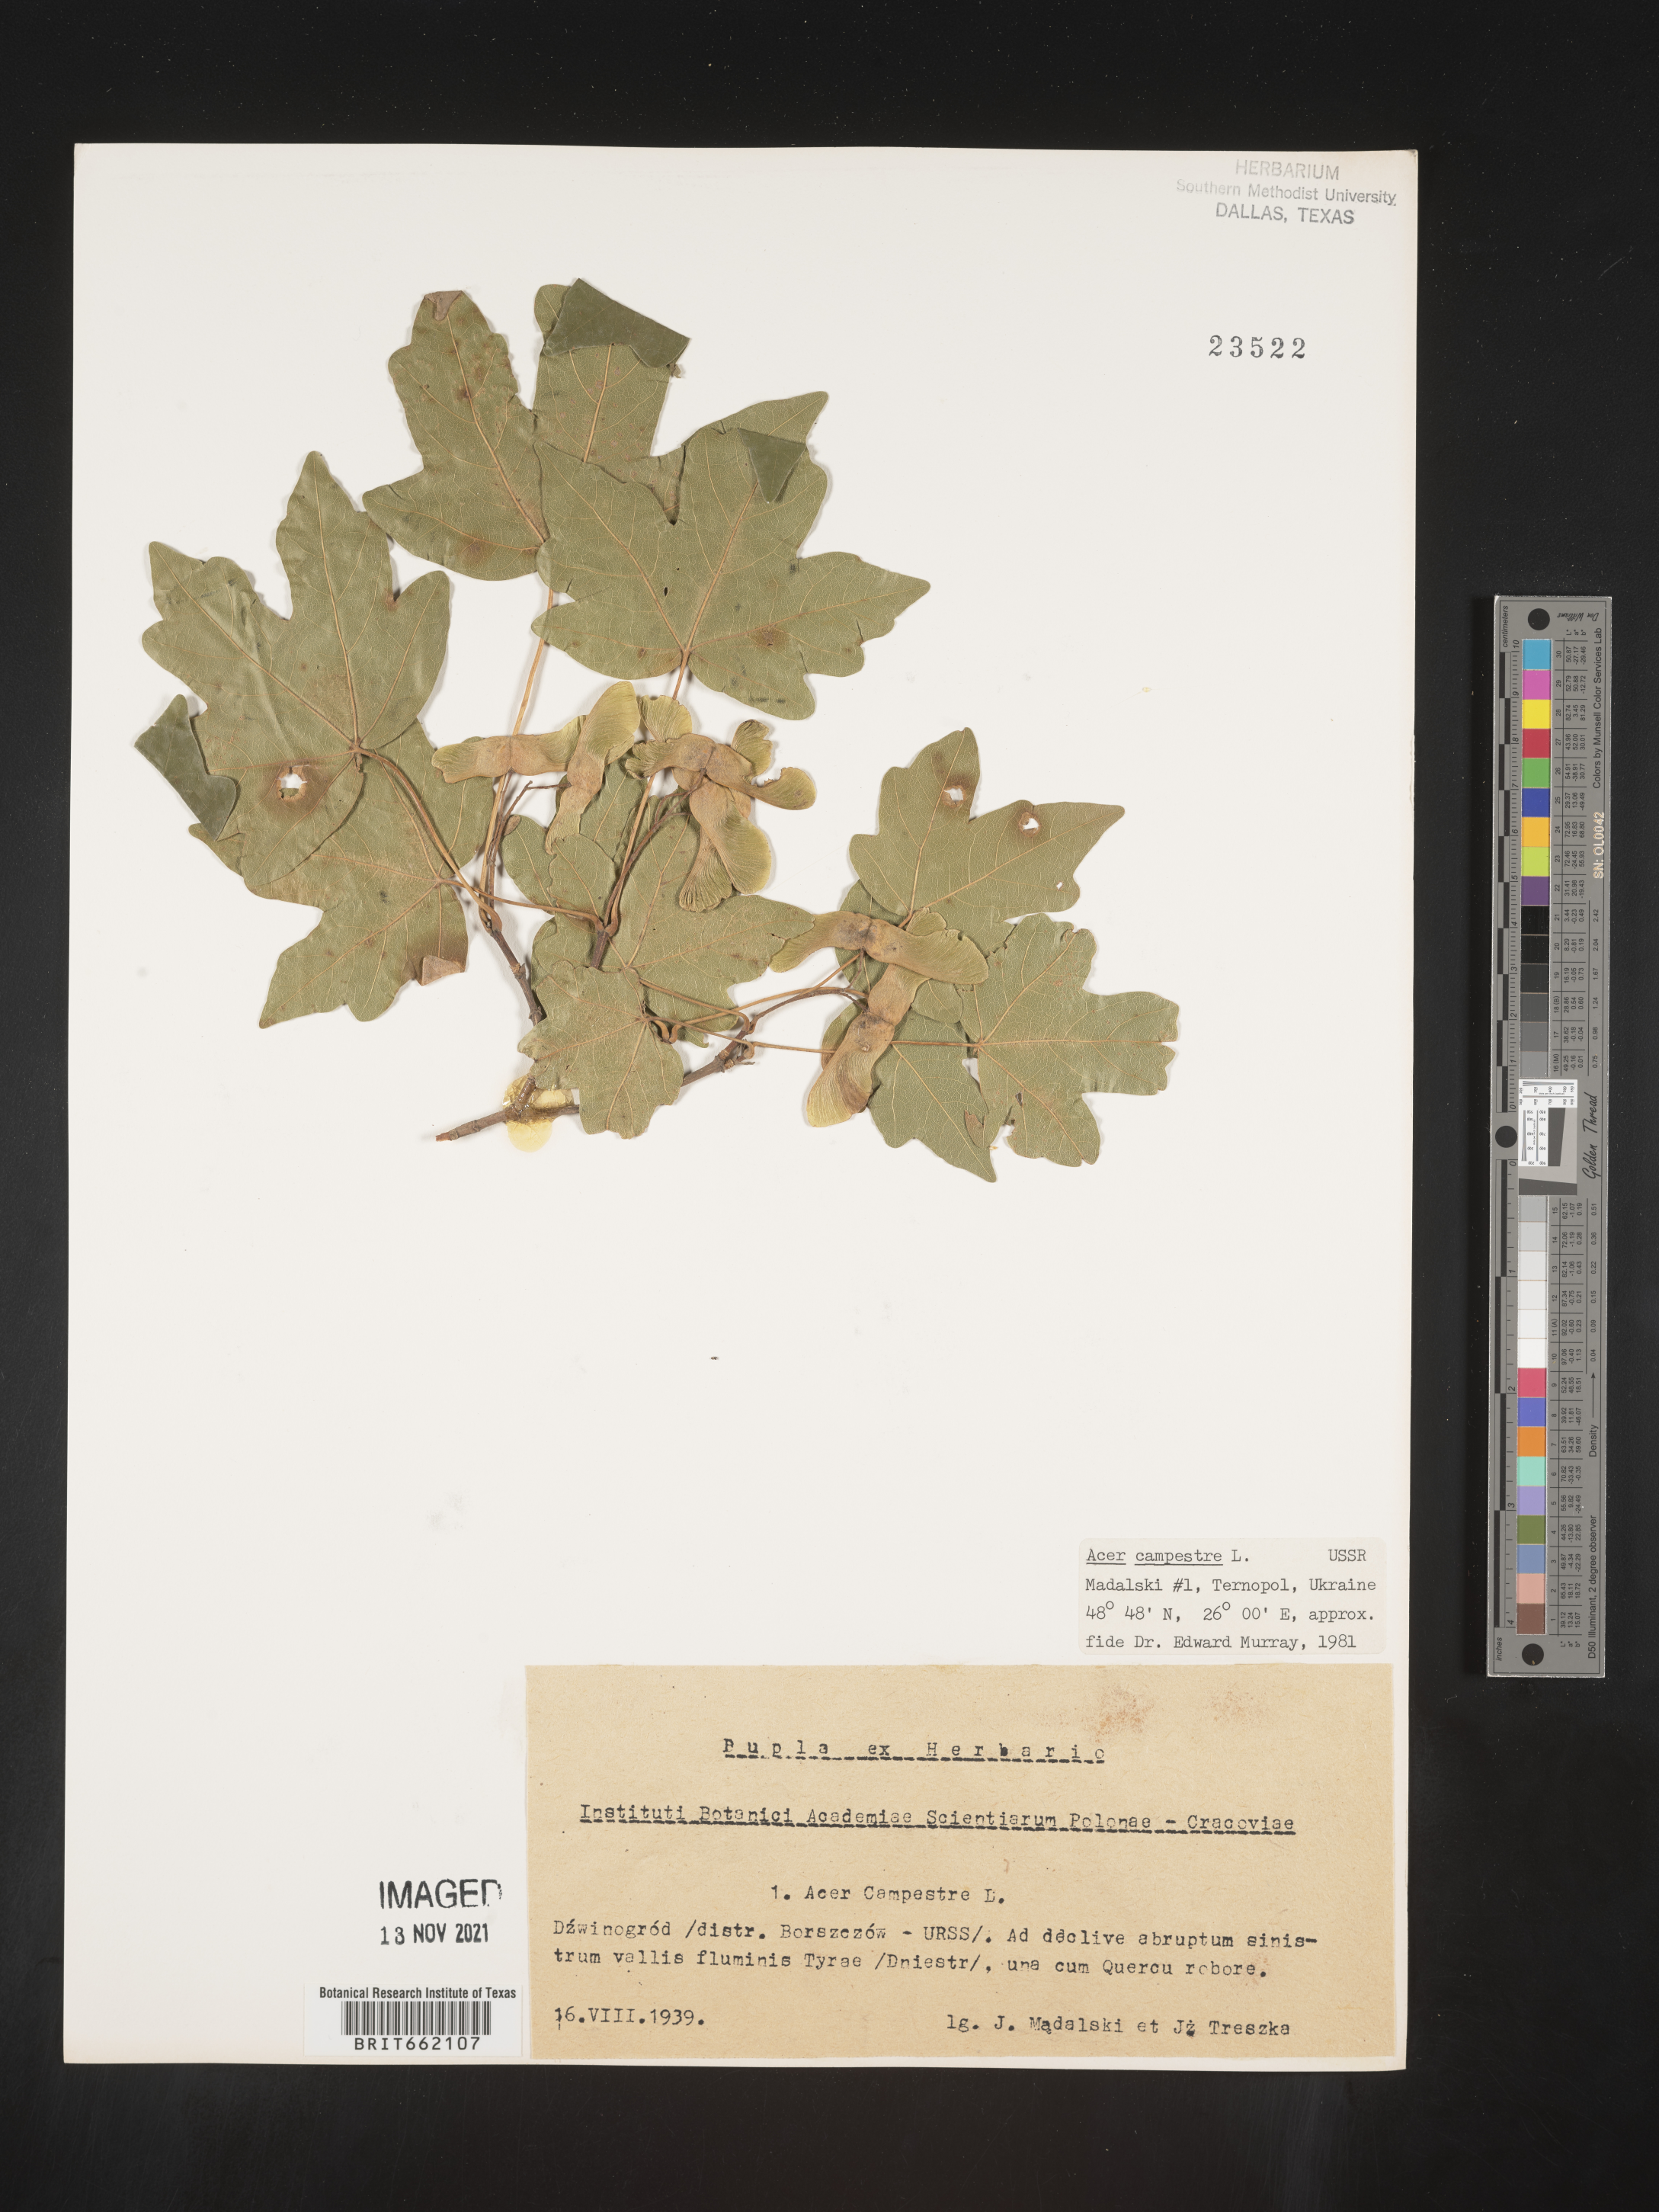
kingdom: Plantae
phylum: Tracheophyta
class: Magnoliopsida
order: Sapindales
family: Sapindaceae
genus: Acer
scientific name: Acer
